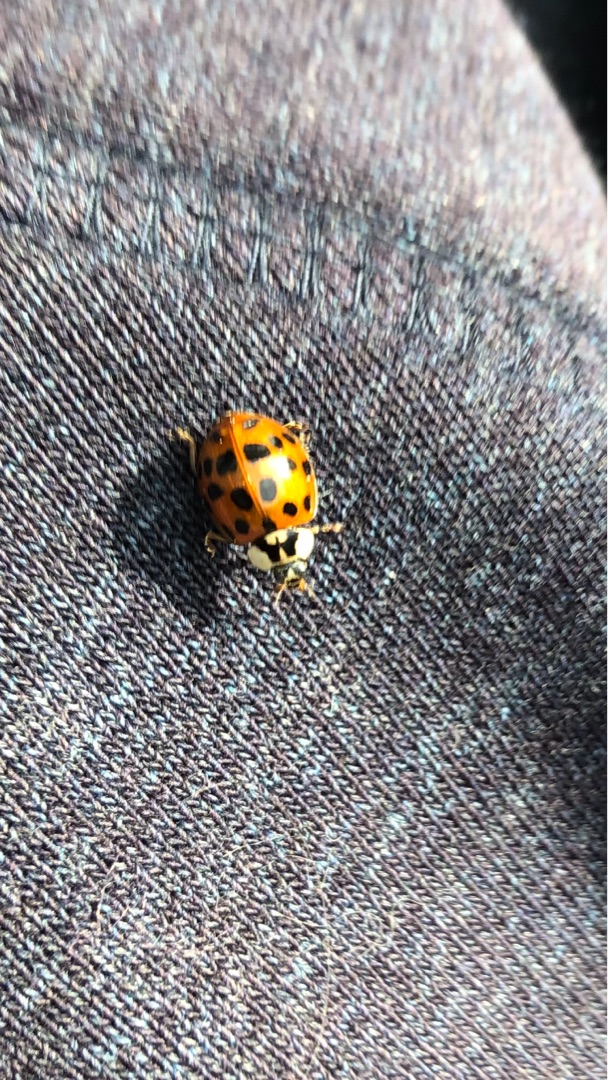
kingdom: Animalia
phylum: Arthropoda
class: Insecta
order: Coleoptera
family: Coccinellidae
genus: Harmonia
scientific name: Harmonia axyridis
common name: Harlekinmariehøne
